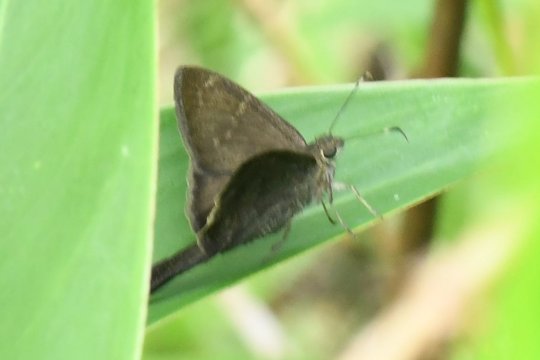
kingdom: Animalia
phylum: Arthropoda
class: Insecta
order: Lepidoptera
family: Hesperiidae
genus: Urbanus
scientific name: Urbanus simplicius
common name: Plain Longtail
